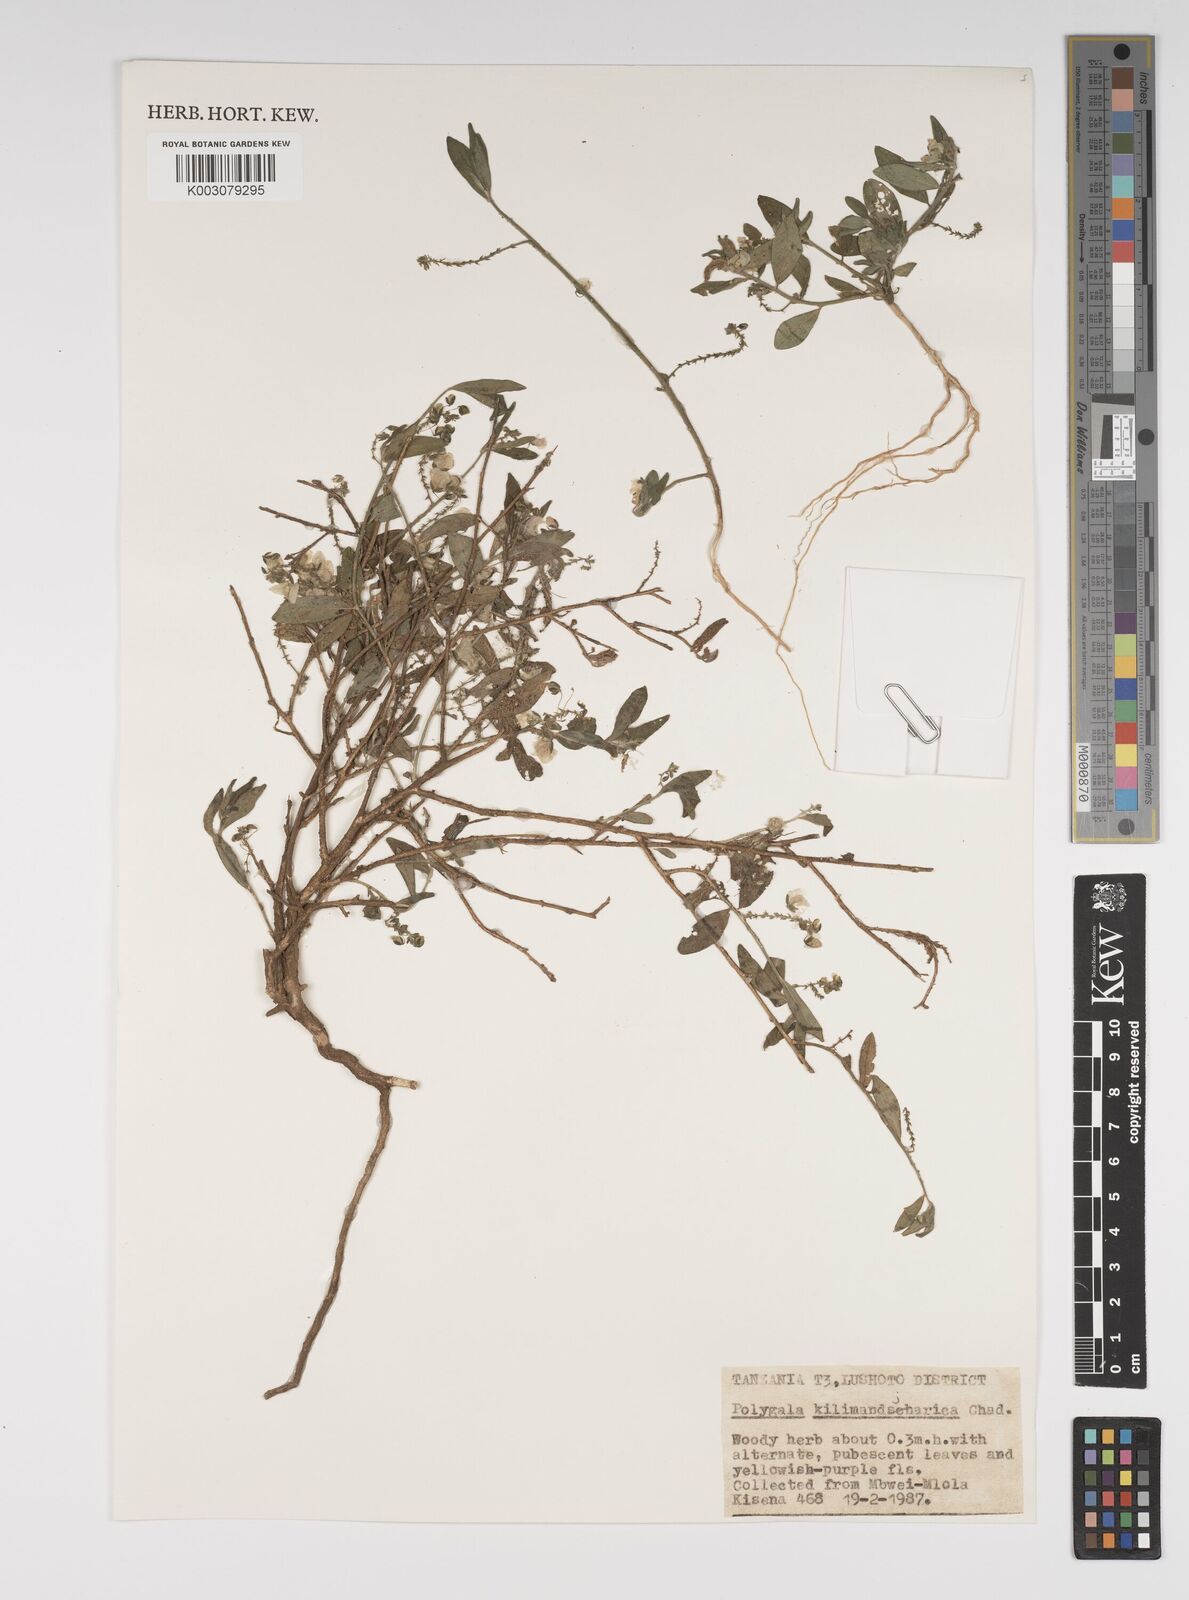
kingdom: Plantae
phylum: Tracheophyta
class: Magnoliopsida
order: Fabales
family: Polygalaceae
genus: Polygala
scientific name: Polygala kilimandjarica
